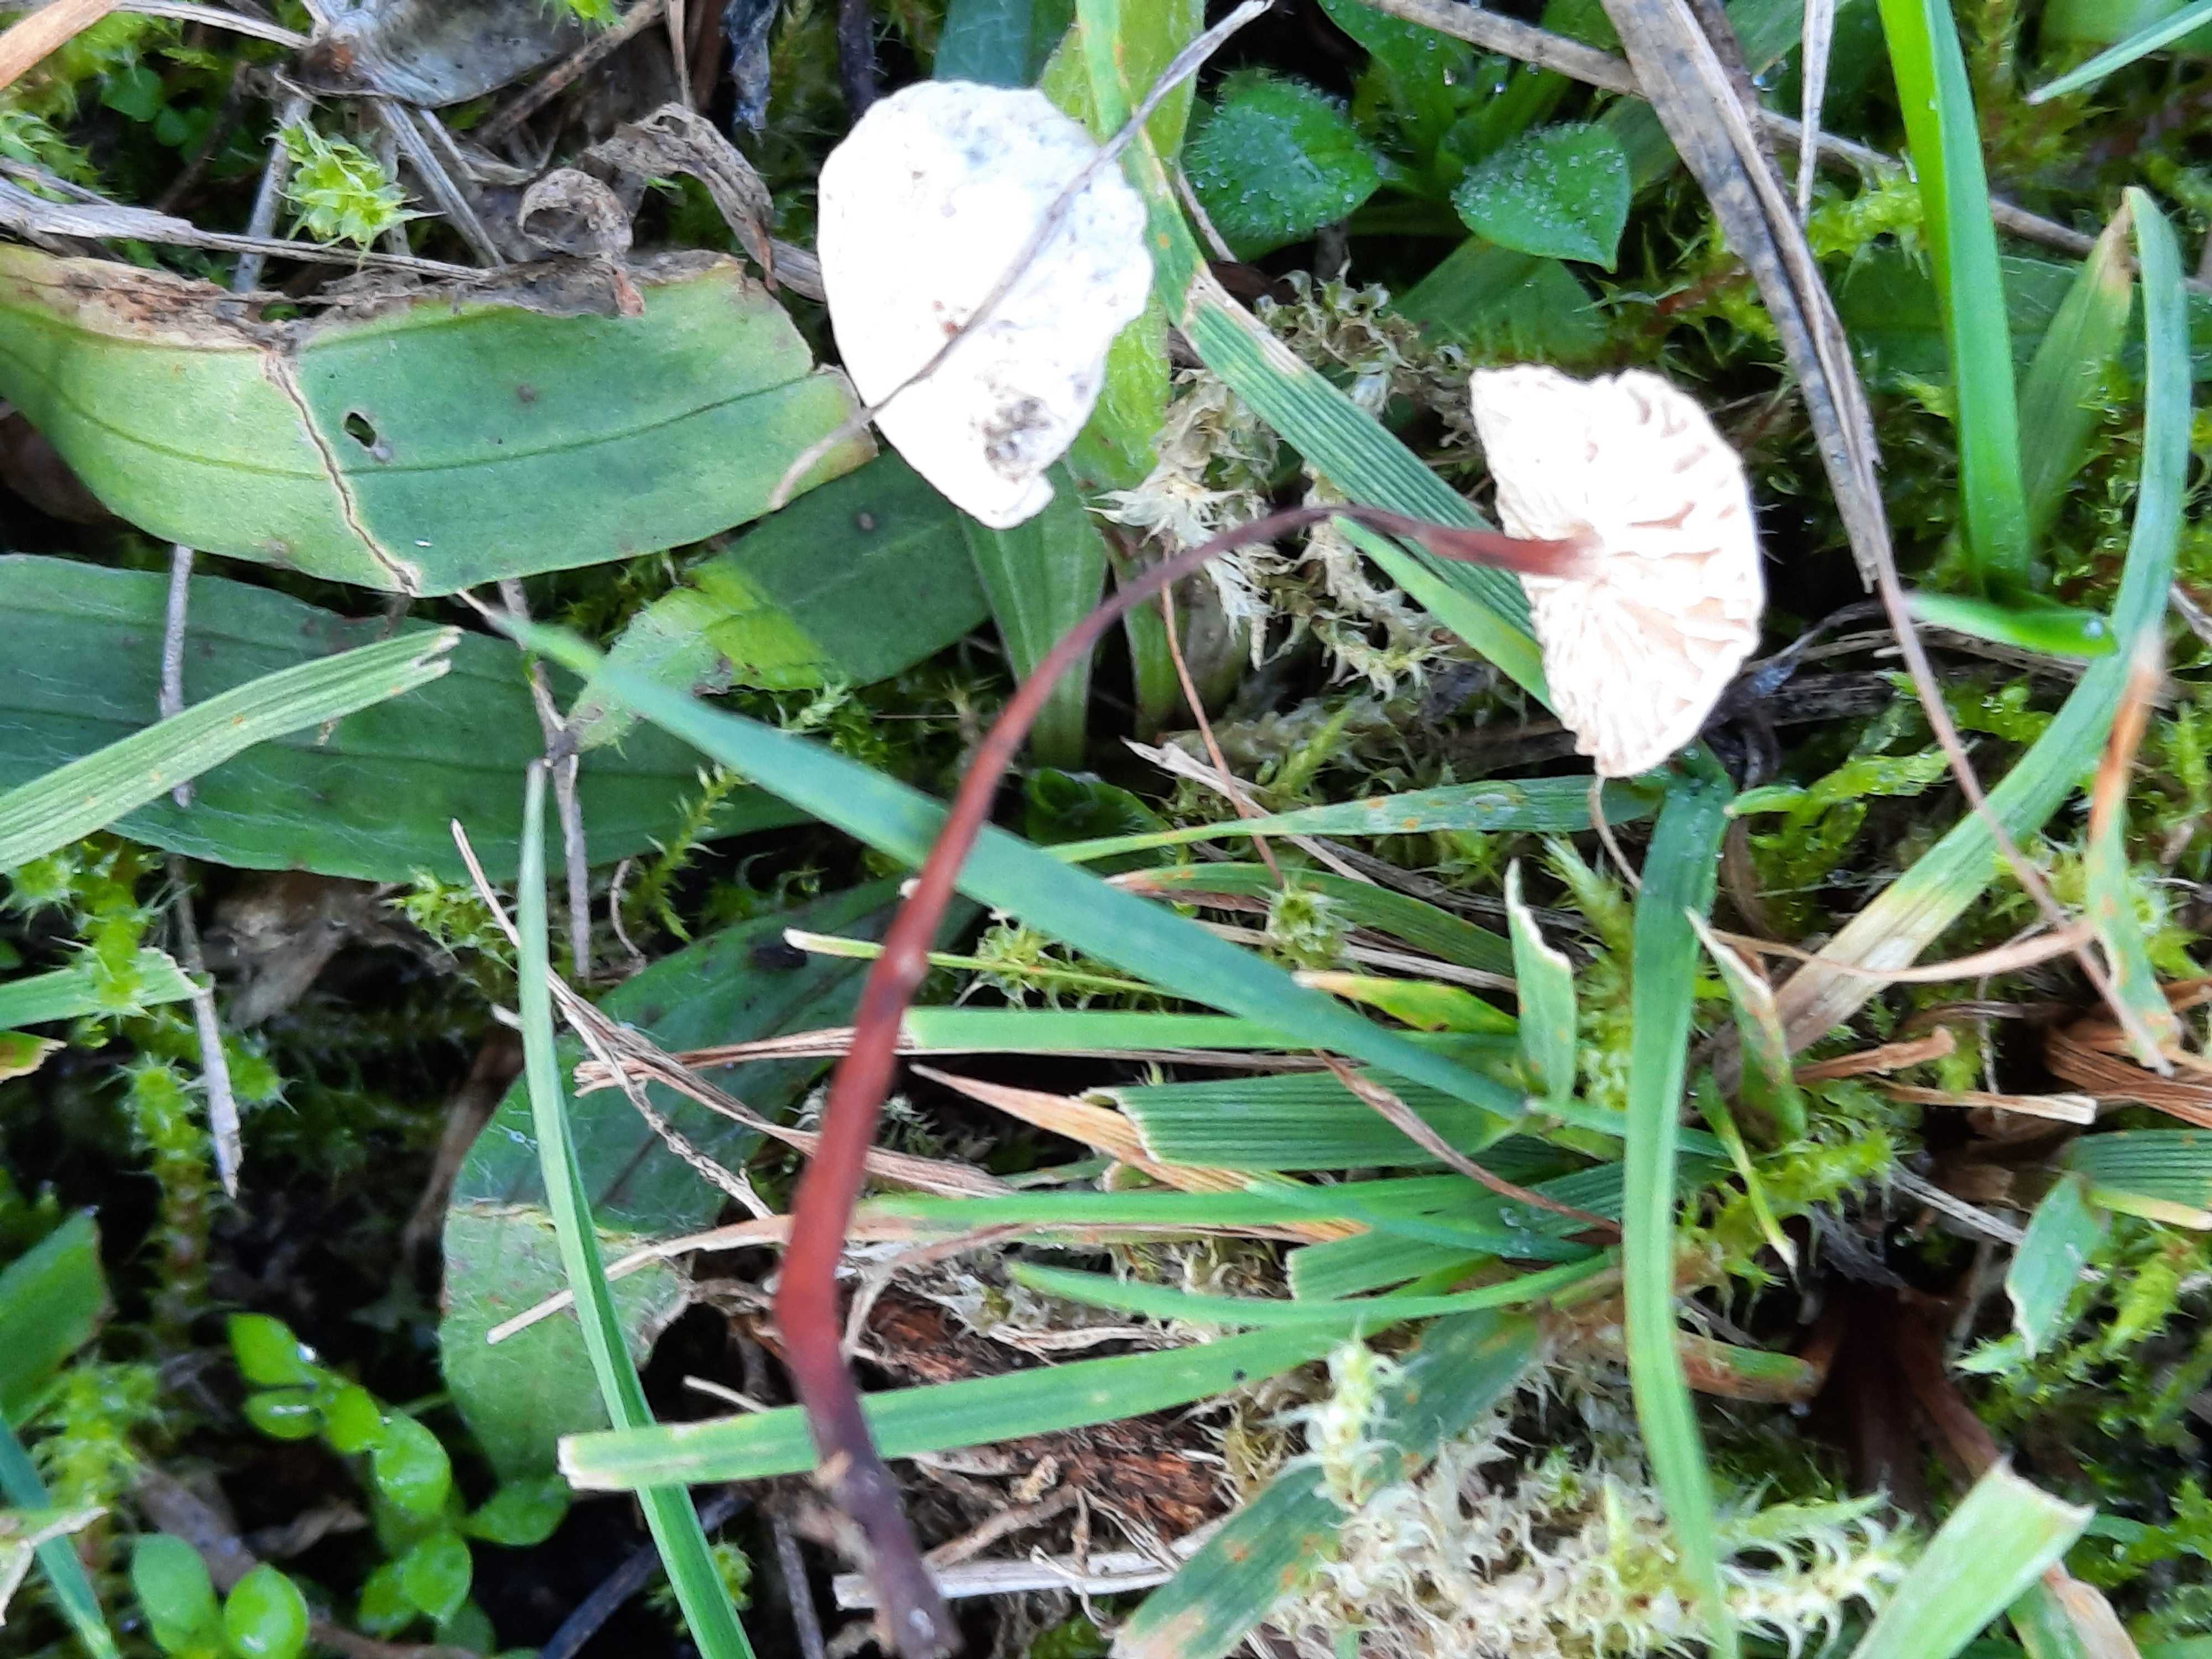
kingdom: Fungi
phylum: Basidiomycota
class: Agaricomycetes
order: Agaricales
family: Omphalotaceae
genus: Mycetinis
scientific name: Mycetinis scorodonius
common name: lille løghat
